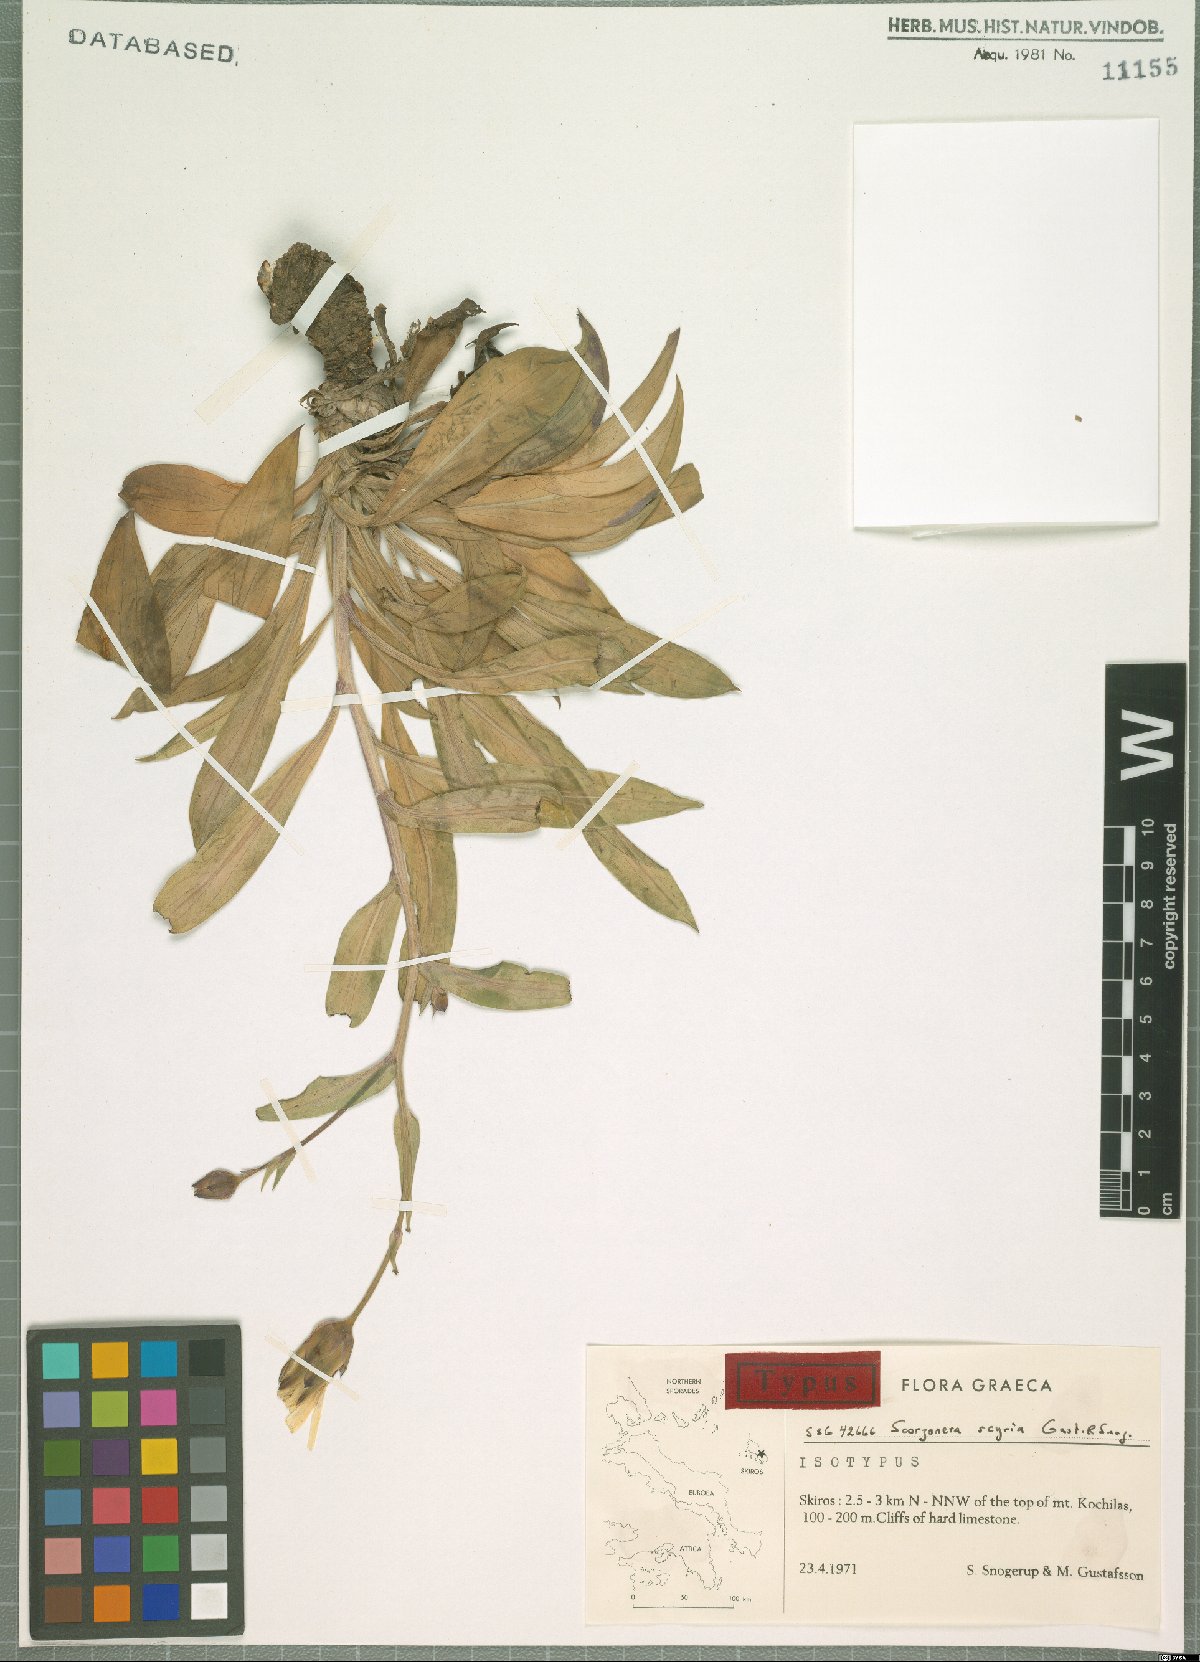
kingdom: Plantae
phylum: Tracheophyta
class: Magnoliopsida
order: Asterales
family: Asteraceae
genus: Scorzonera
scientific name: Scorzonera scyria
